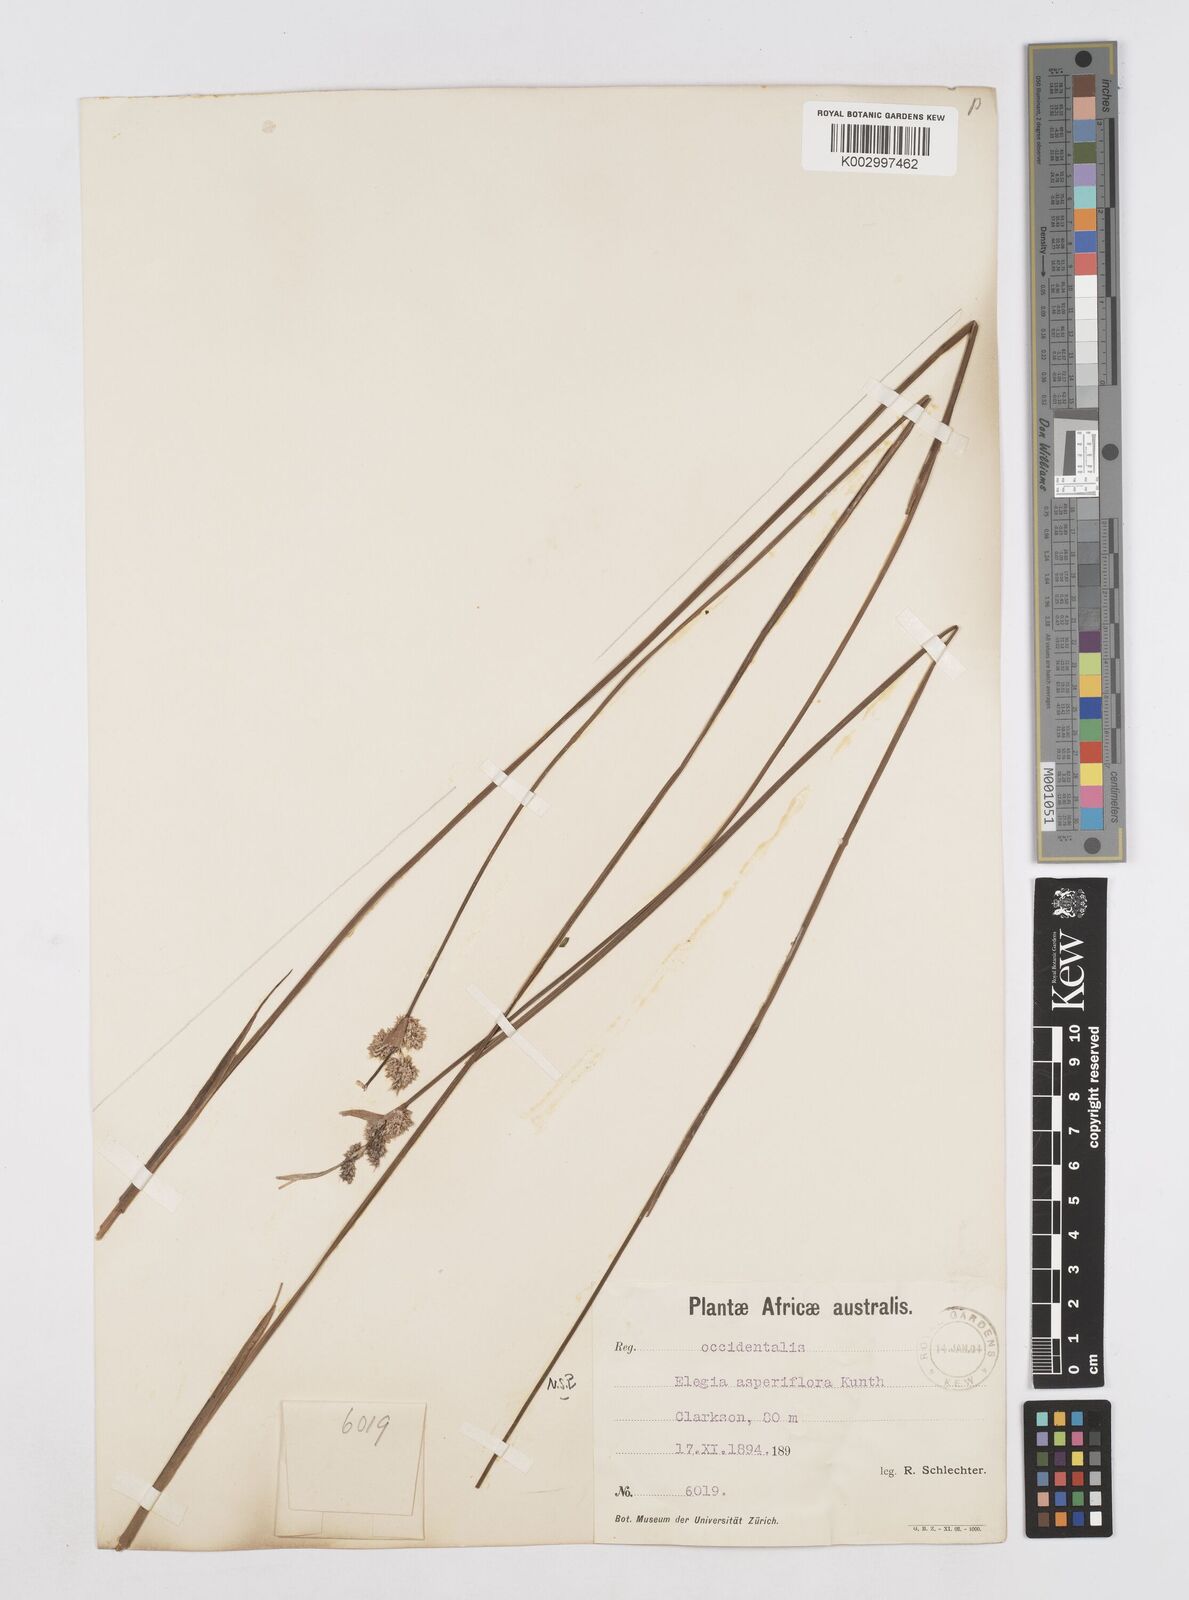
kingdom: Plantae
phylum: Tracheophyta
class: Liliopsida
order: Poales
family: Restionaceae
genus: Elegia
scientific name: Elegia asperiflora
